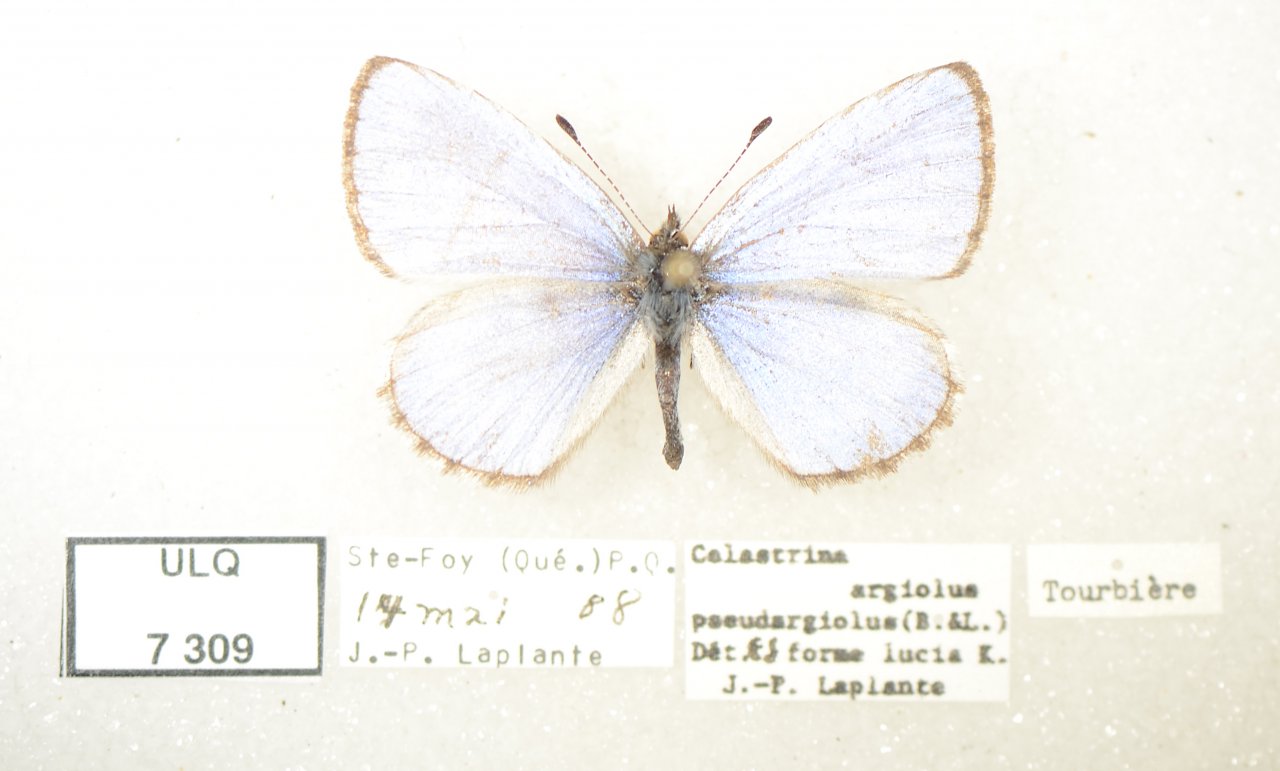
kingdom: Animalia
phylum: Arthropoda
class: Insecta
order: Lepidoptera
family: Lycaenidae
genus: Celastrina
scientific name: Celastrina lucia
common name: Northern Spring Azure
